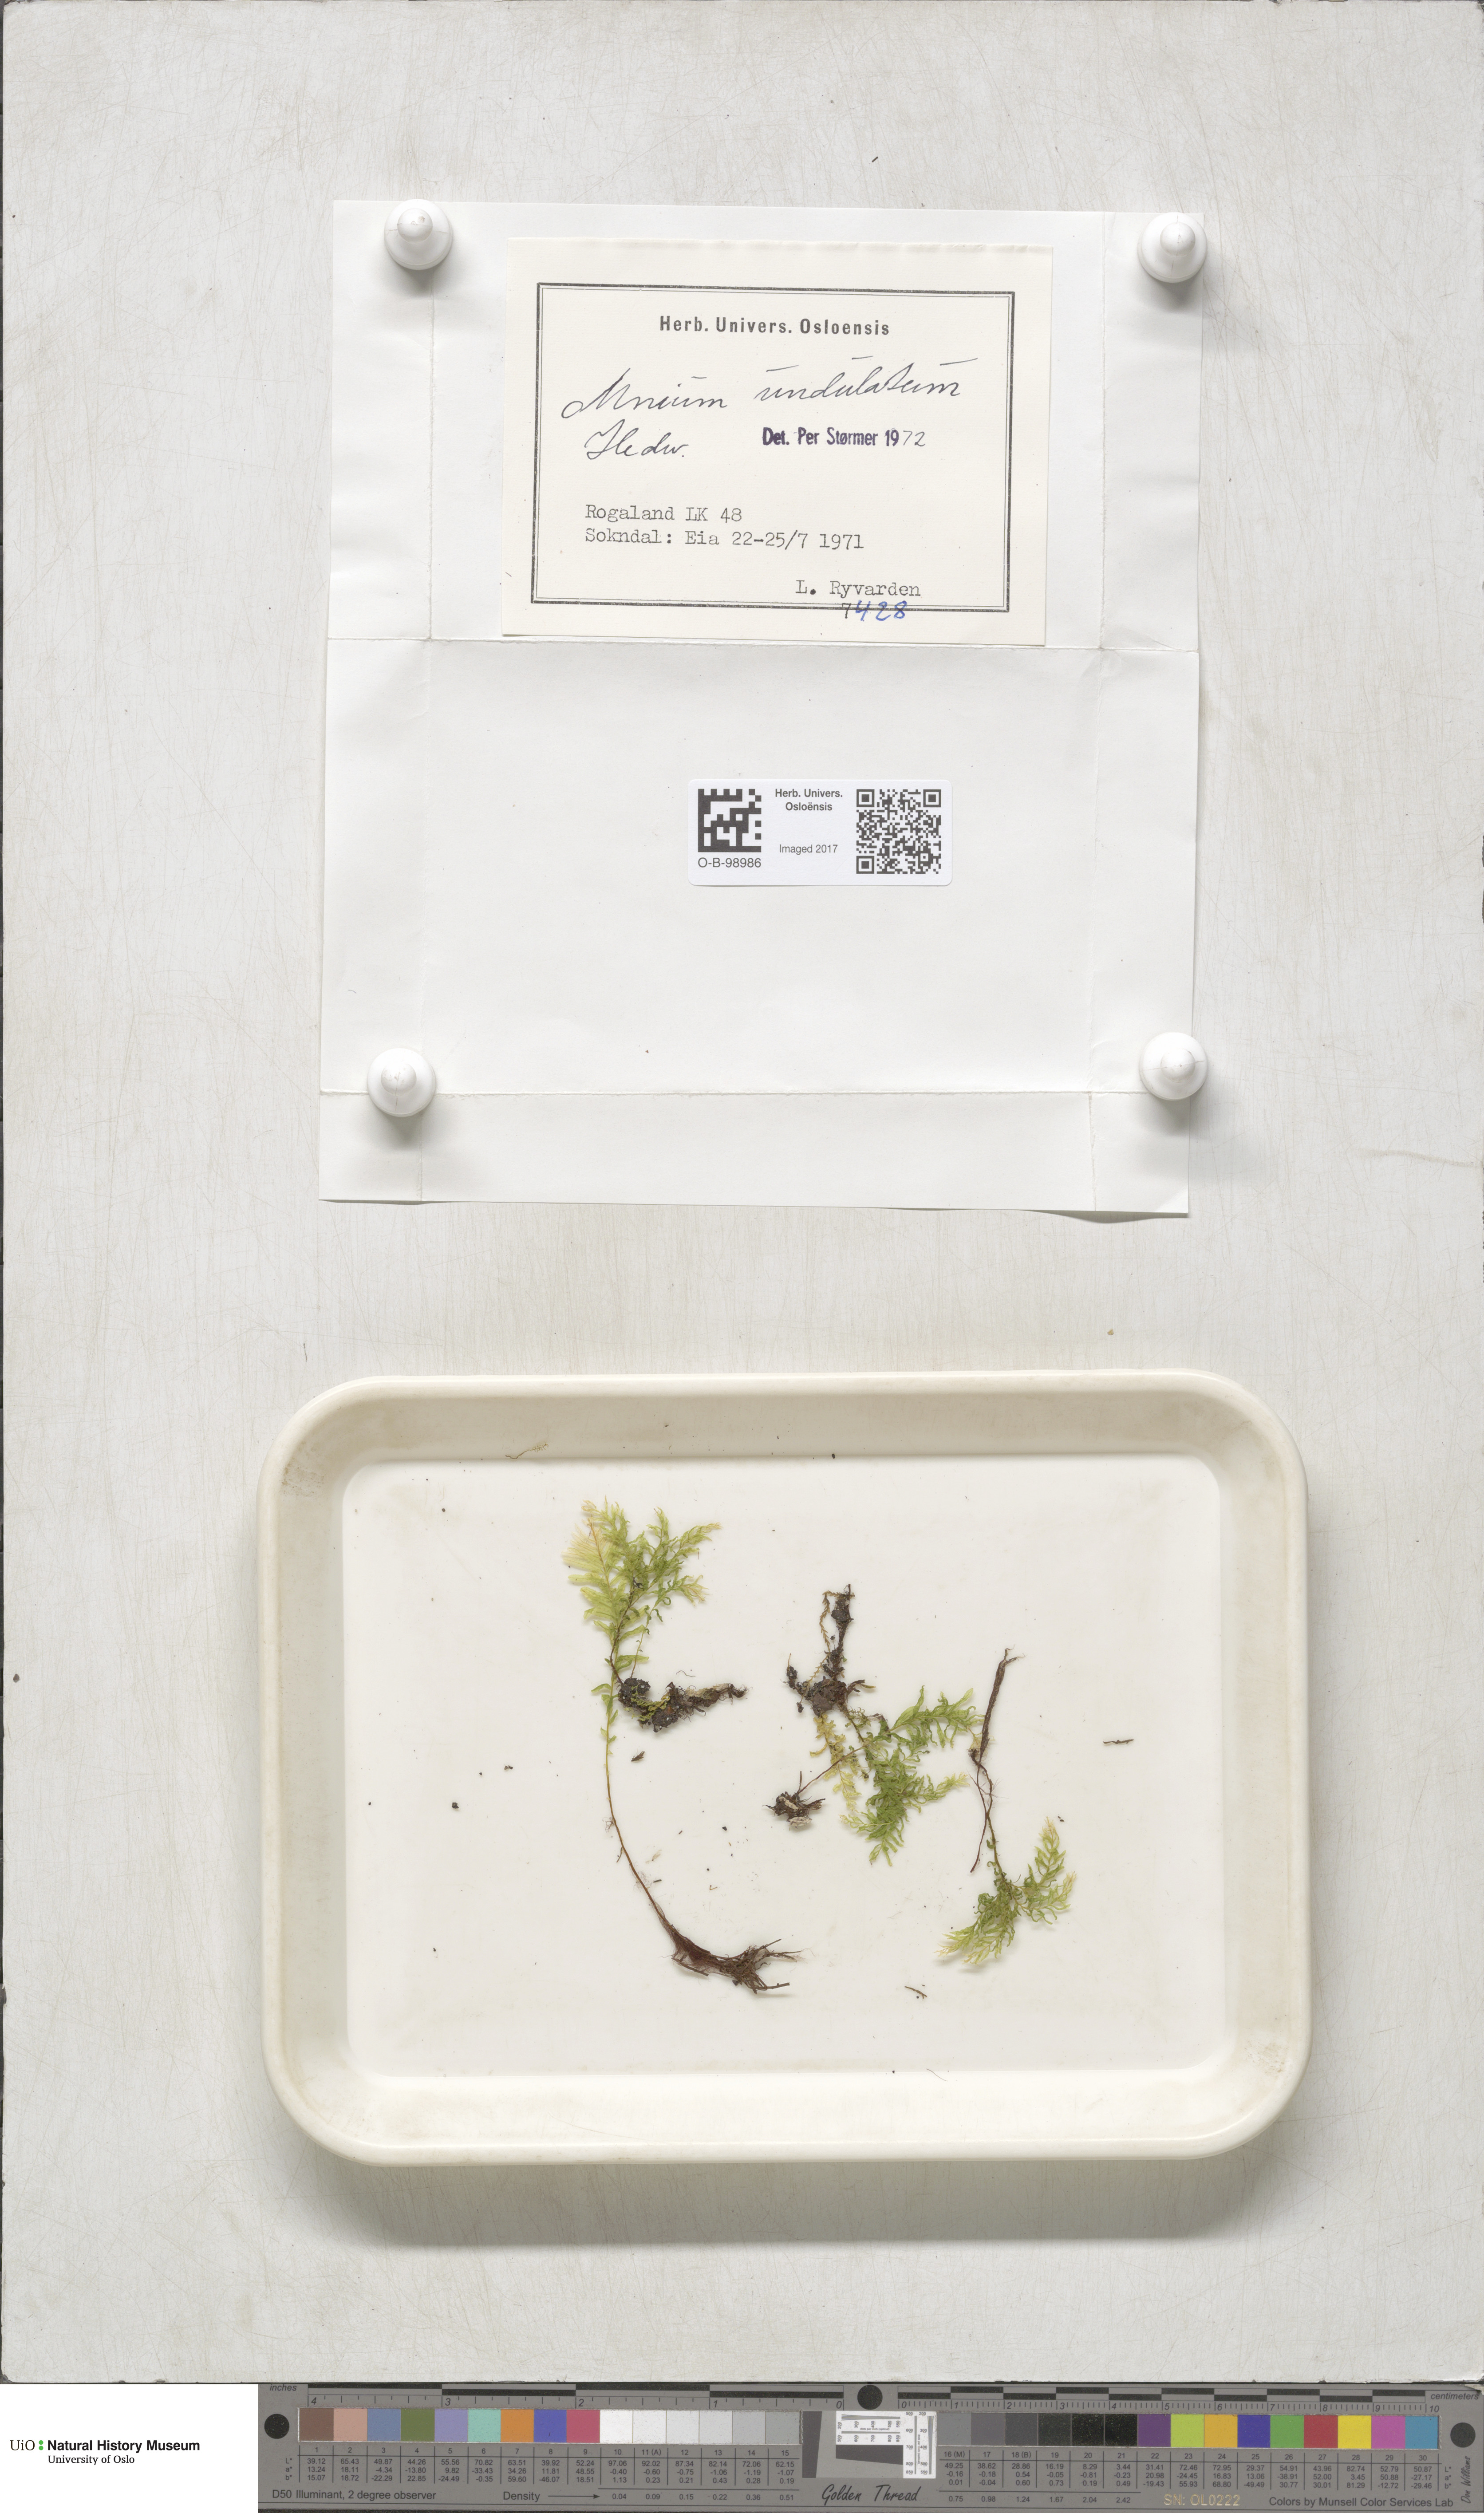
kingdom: Plantae
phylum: Bryophyta
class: Bryopsida
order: Bryales
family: Mniaceae
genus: Plagiomnium
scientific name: Plagiomnium undulatum
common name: Hart's-tongue thyme-moss
